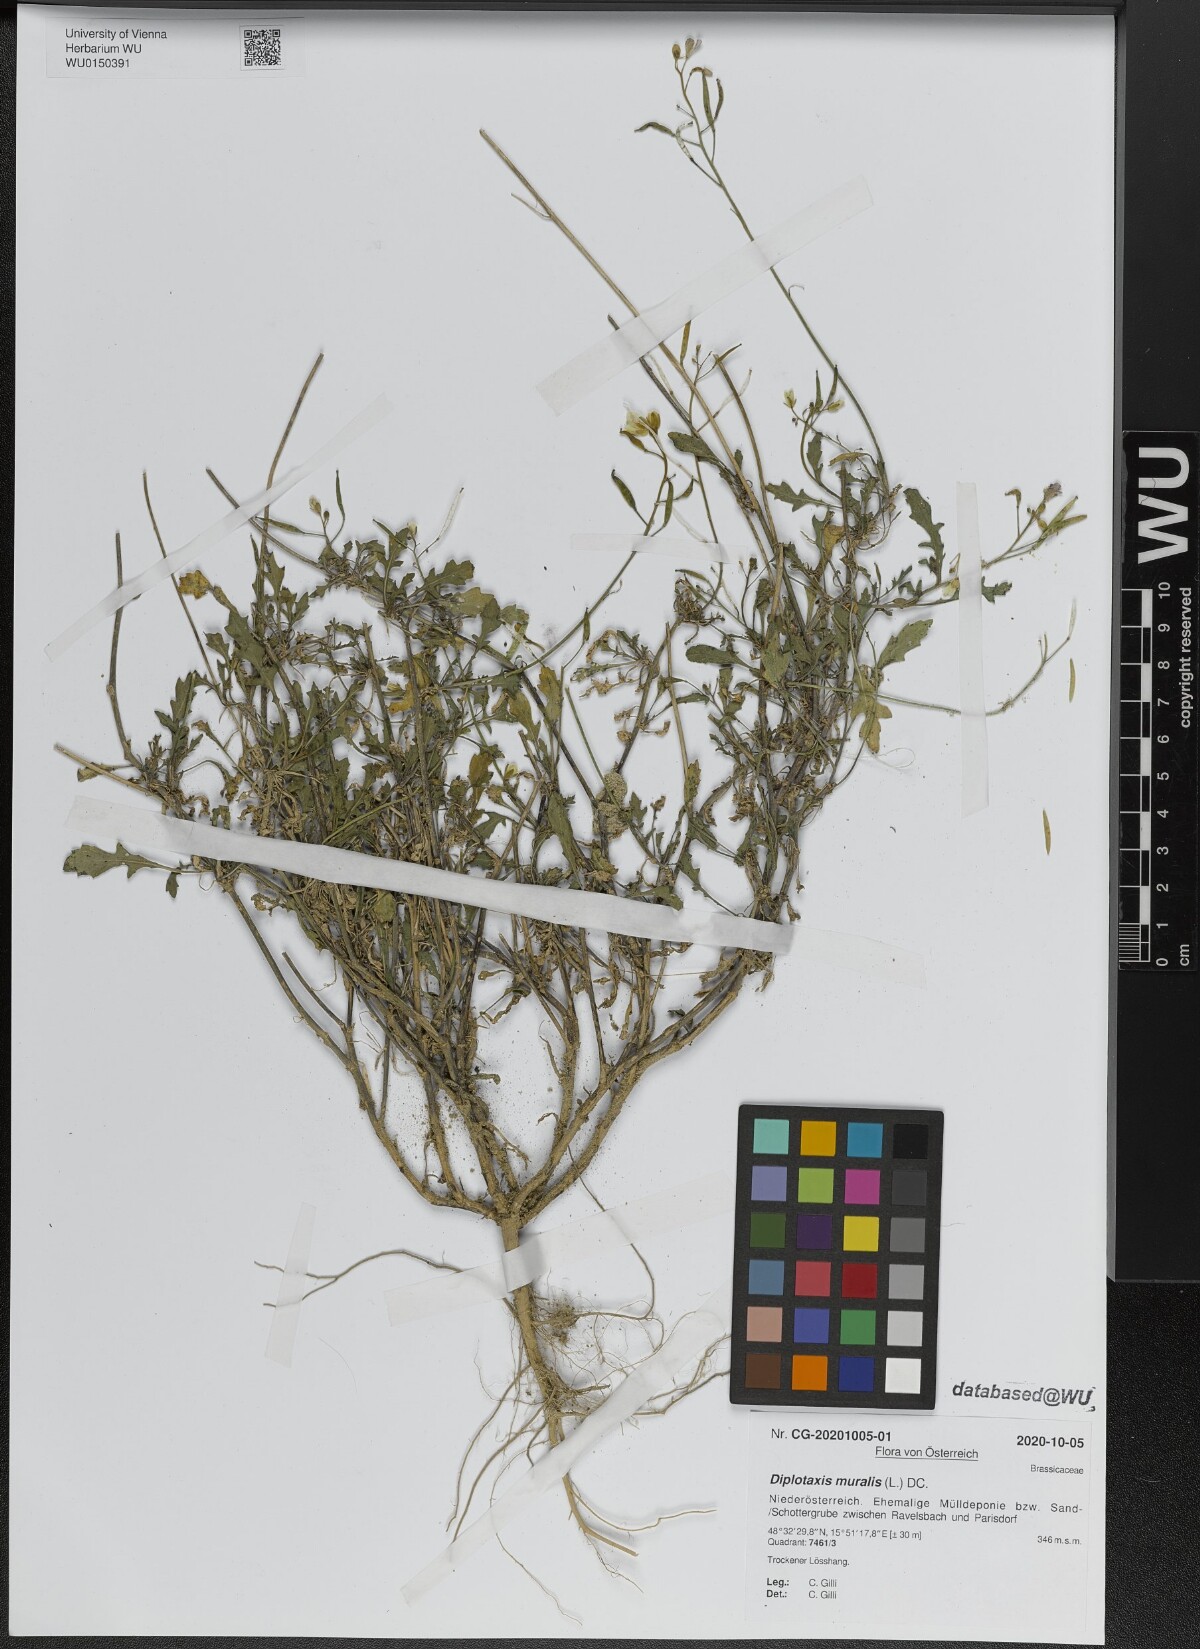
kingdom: Plantae
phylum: Tracheophyta
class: Magnoliopsida
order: Brassicales
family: Brassicaceae
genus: Diplotaxis
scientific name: Diplotaxis muralis
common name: Annual wall-rocket
